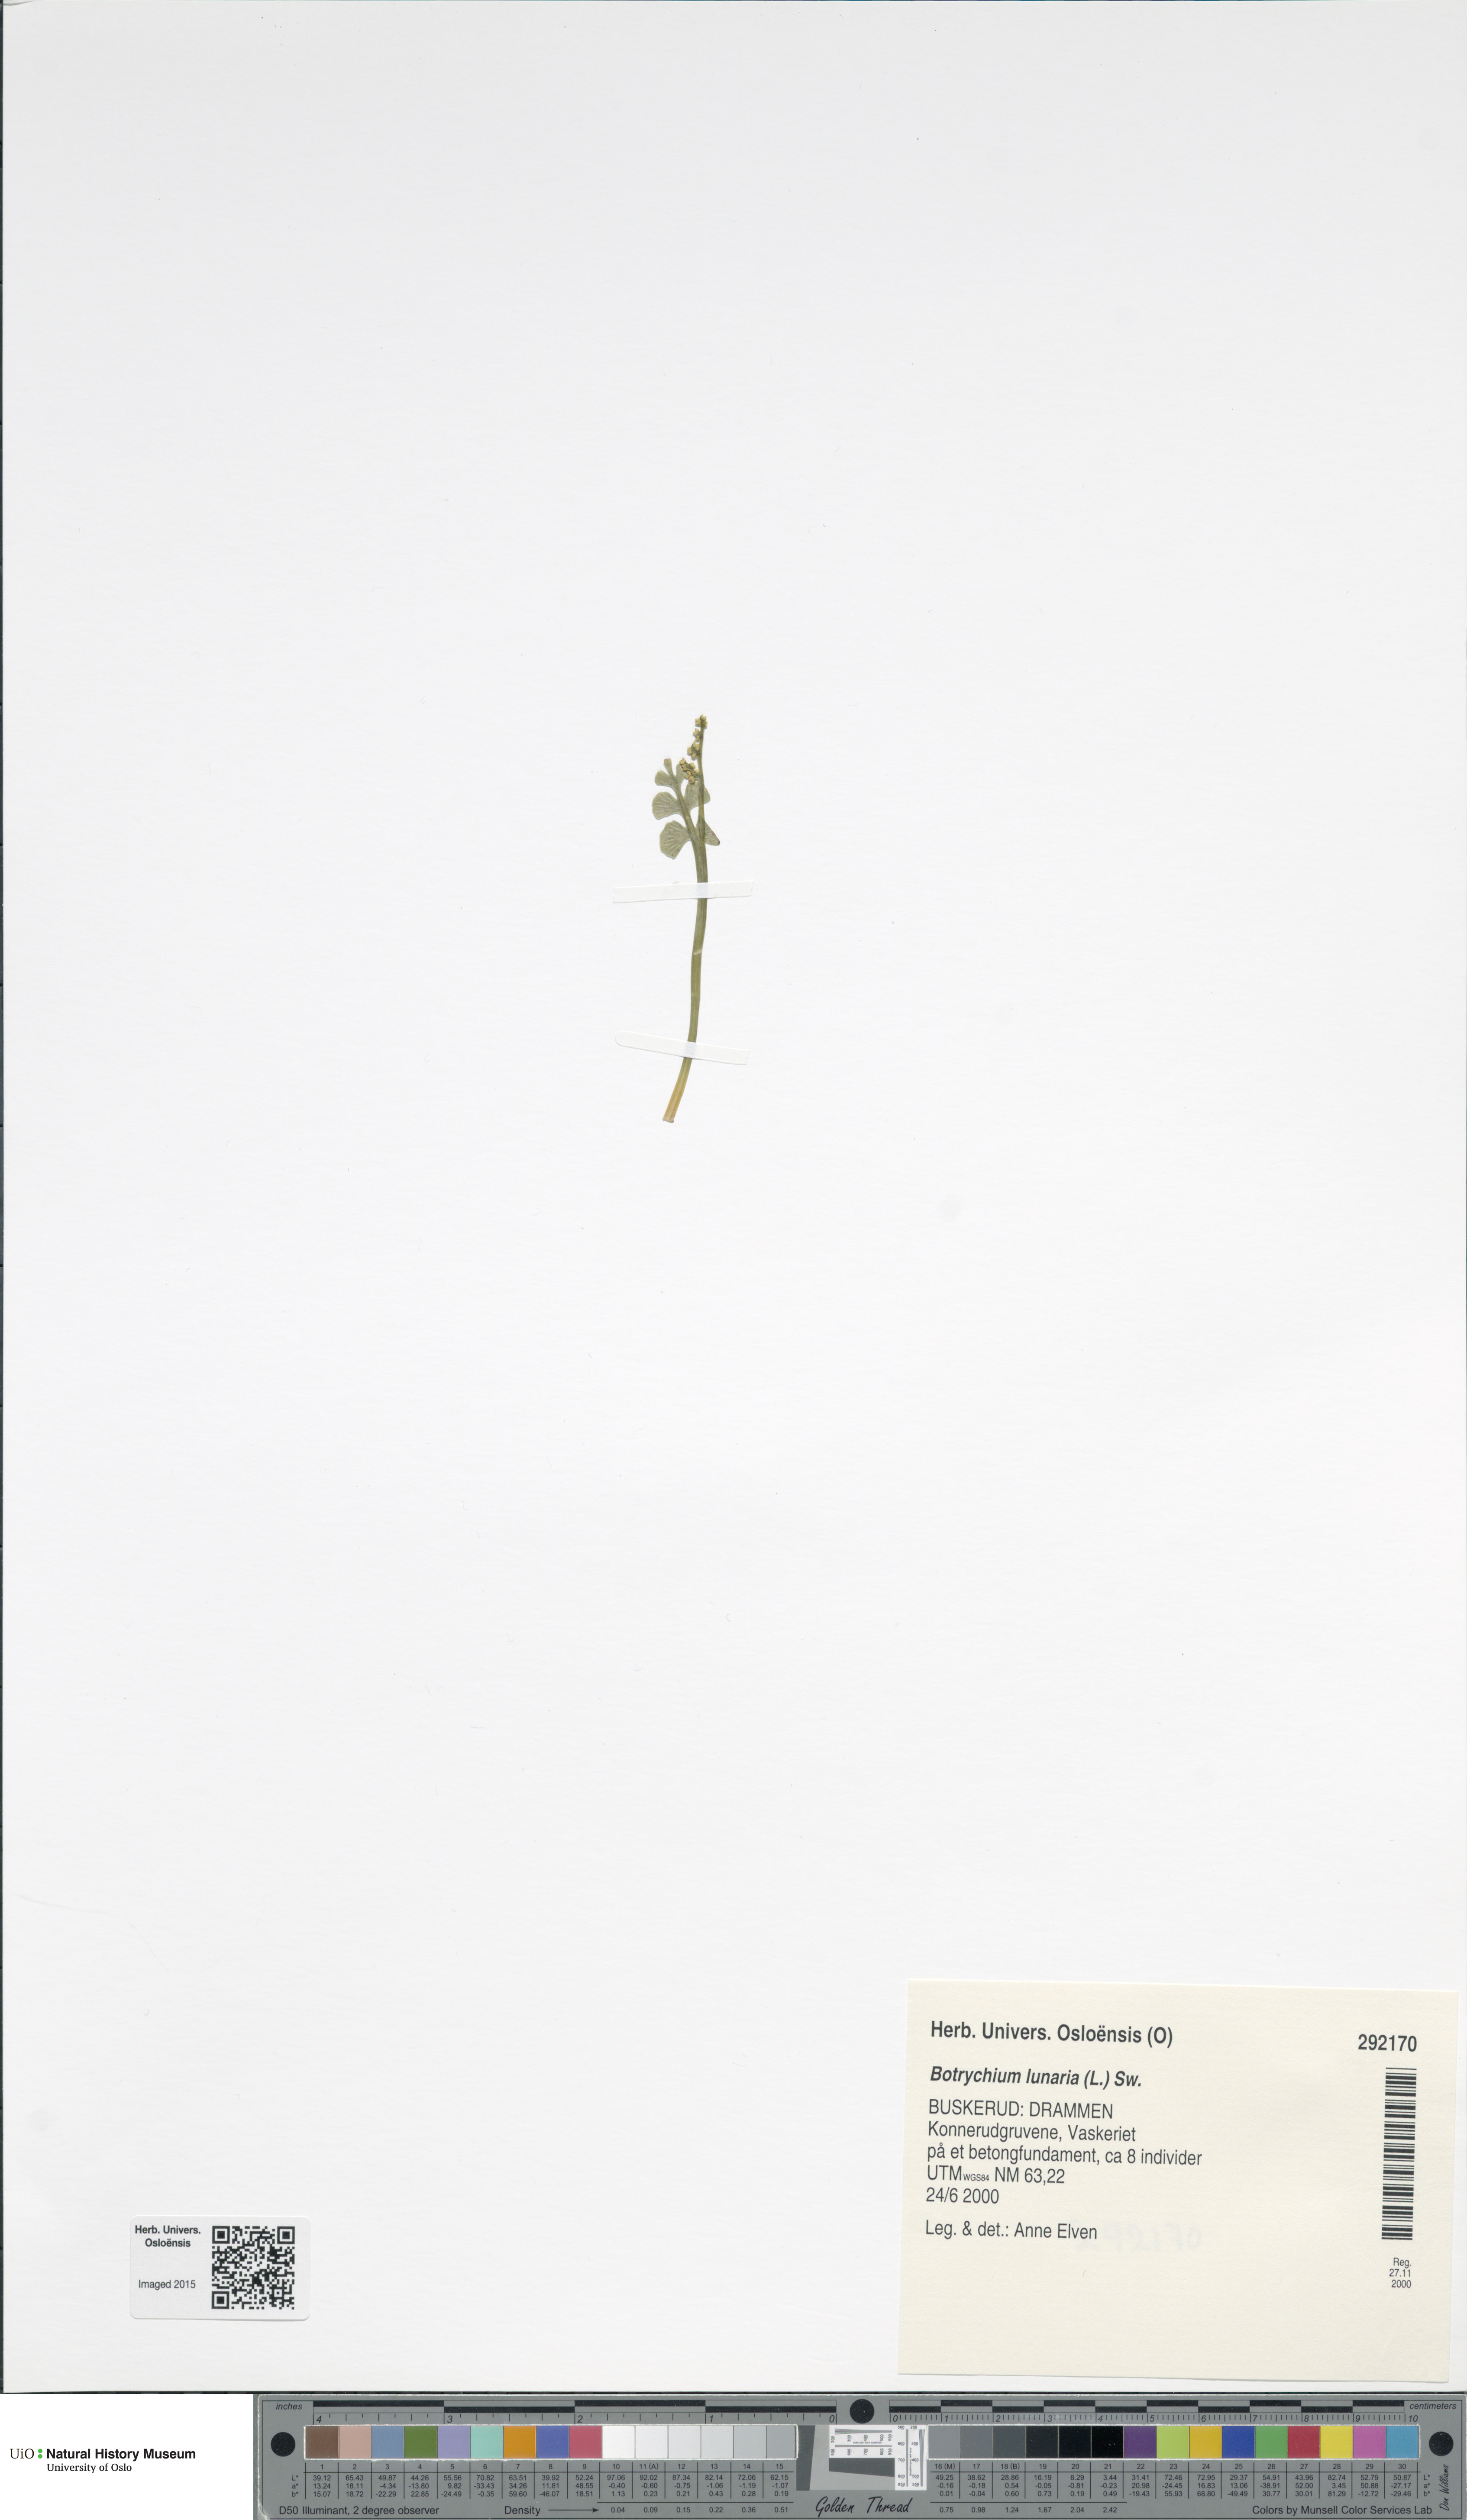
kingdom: Plantae
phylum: Tracheophyta
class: Polypodiopsida
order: Ophioglossales
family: Ophioglossaceae
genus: Botrychium
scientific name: Botrychium lunaria
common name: Moonwort
